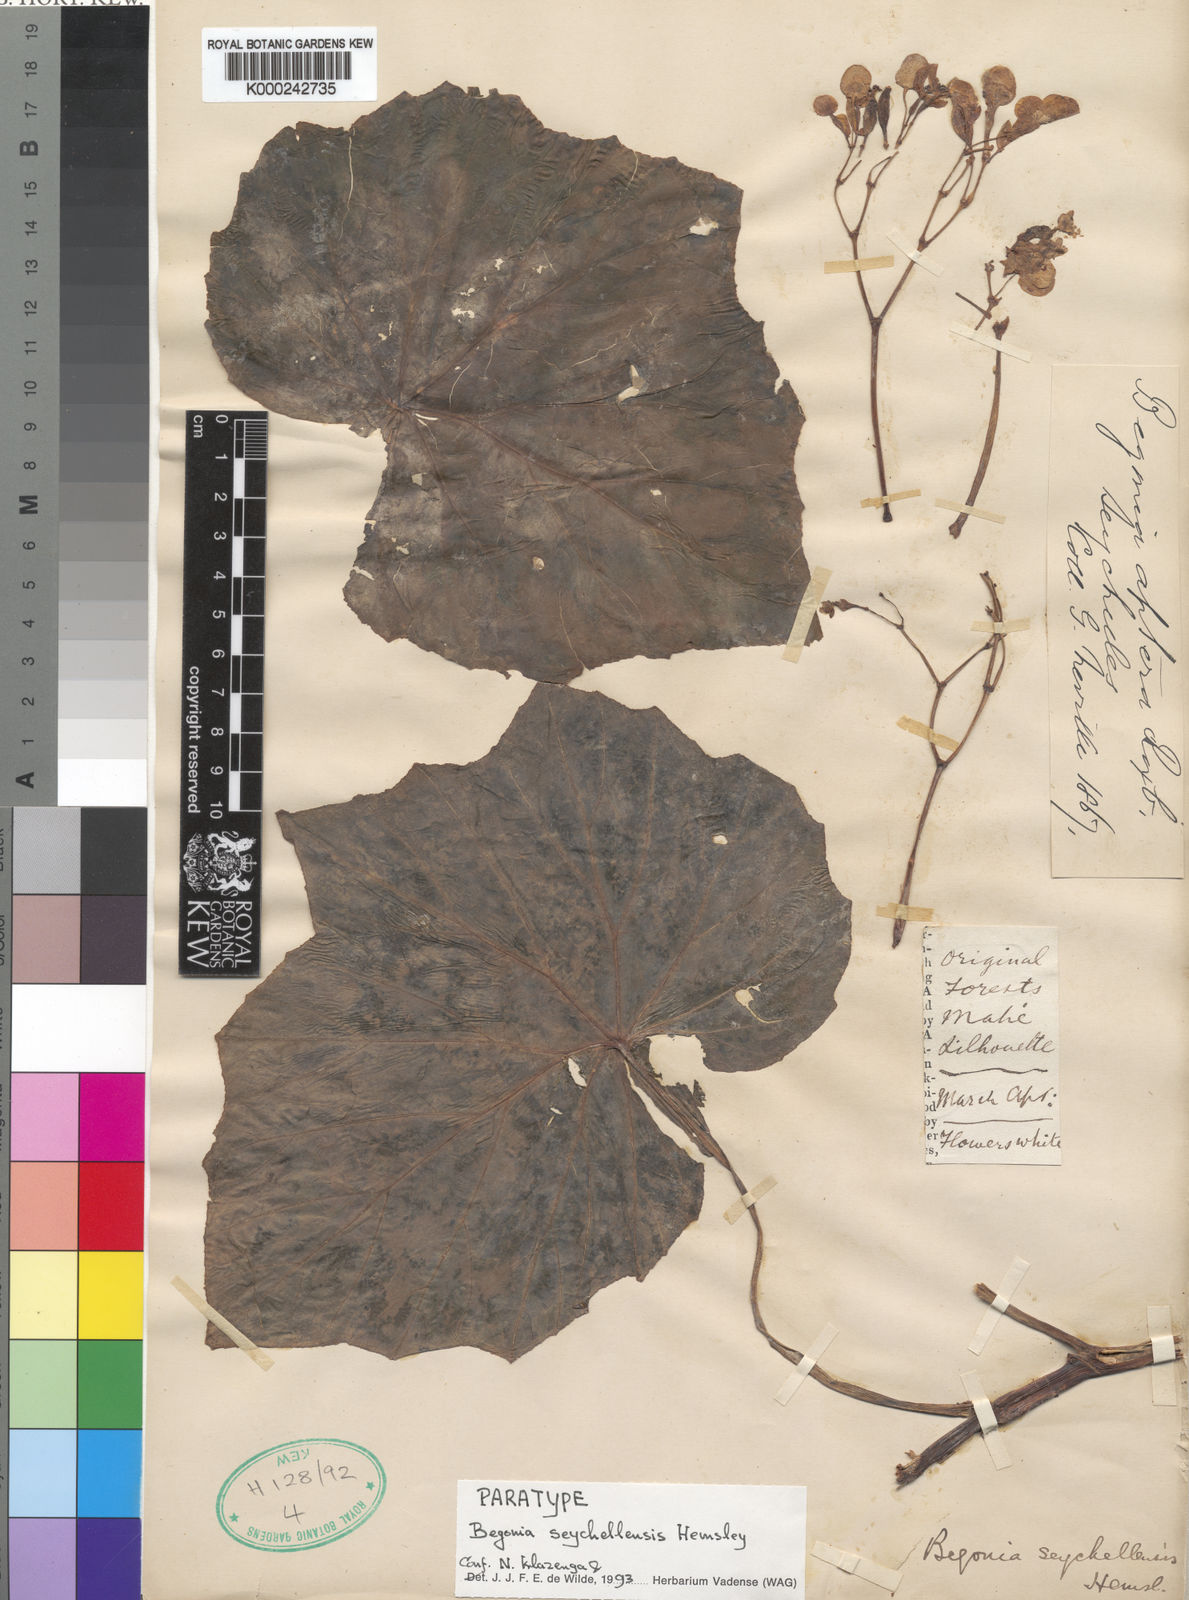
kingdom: Plantae
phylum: Tracheophyta
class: Magnoliopsida
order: Cucurbitales
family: Begoniaceae
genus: Begonia
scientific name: Begonia comorensis
